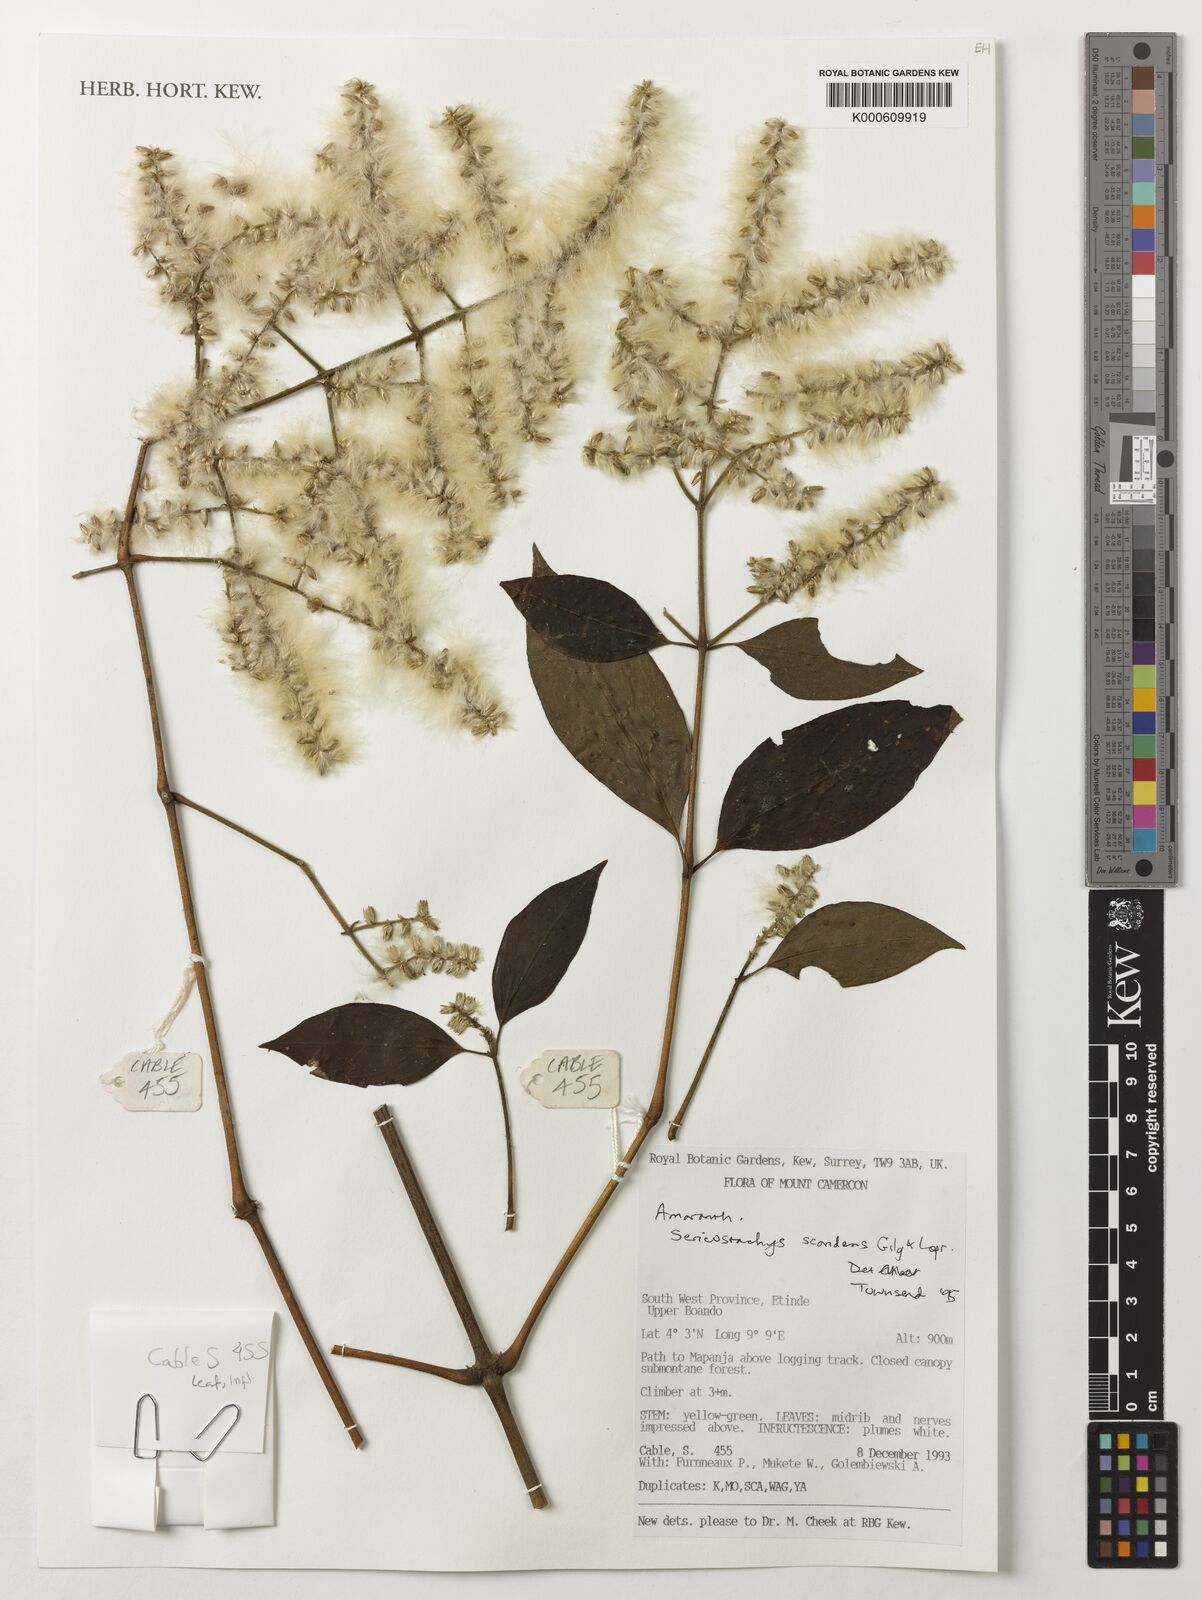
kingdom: Plantae
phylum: Tracheophyta
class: Magnoliopsida
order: Caryophyllales
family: Amaranthaceae
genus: Sericostachys
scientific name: Sericostachys scandens
